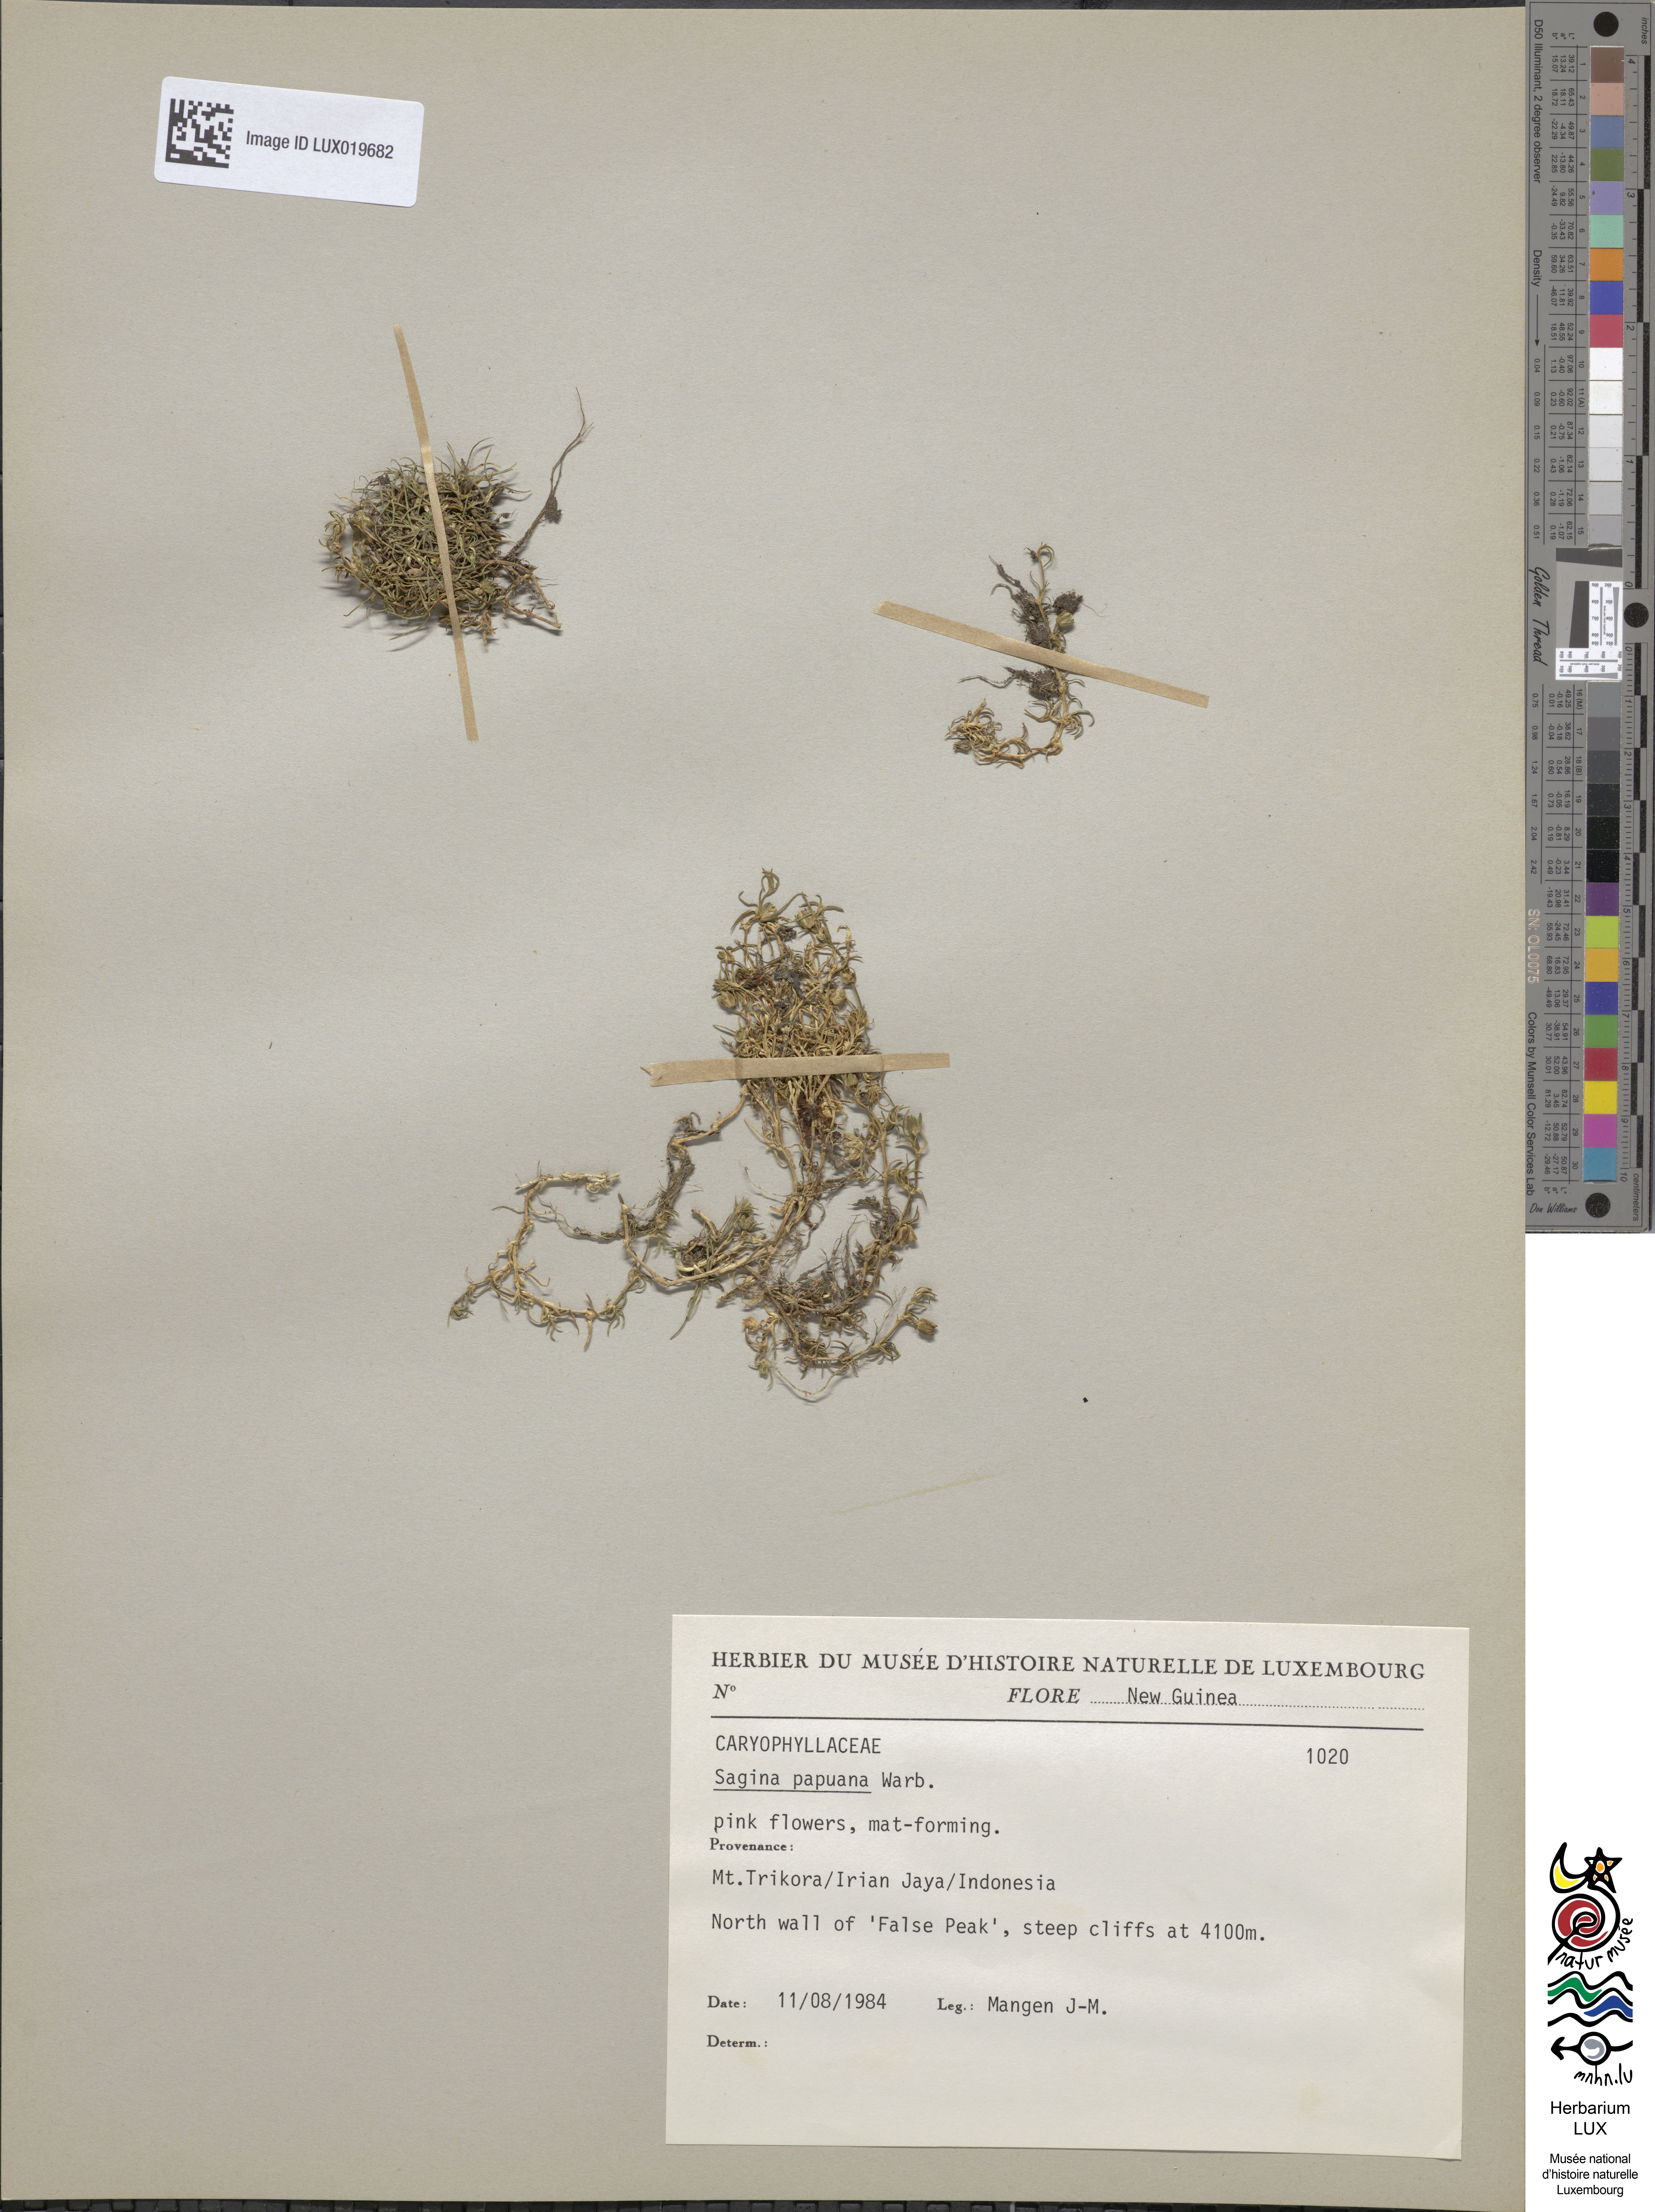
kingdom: Plantae
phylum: Tracheophyta
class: Magnoliopsida
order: Caryophyllales
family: Caryophyllaceae
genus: Sagina
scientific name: Sagina papuana
